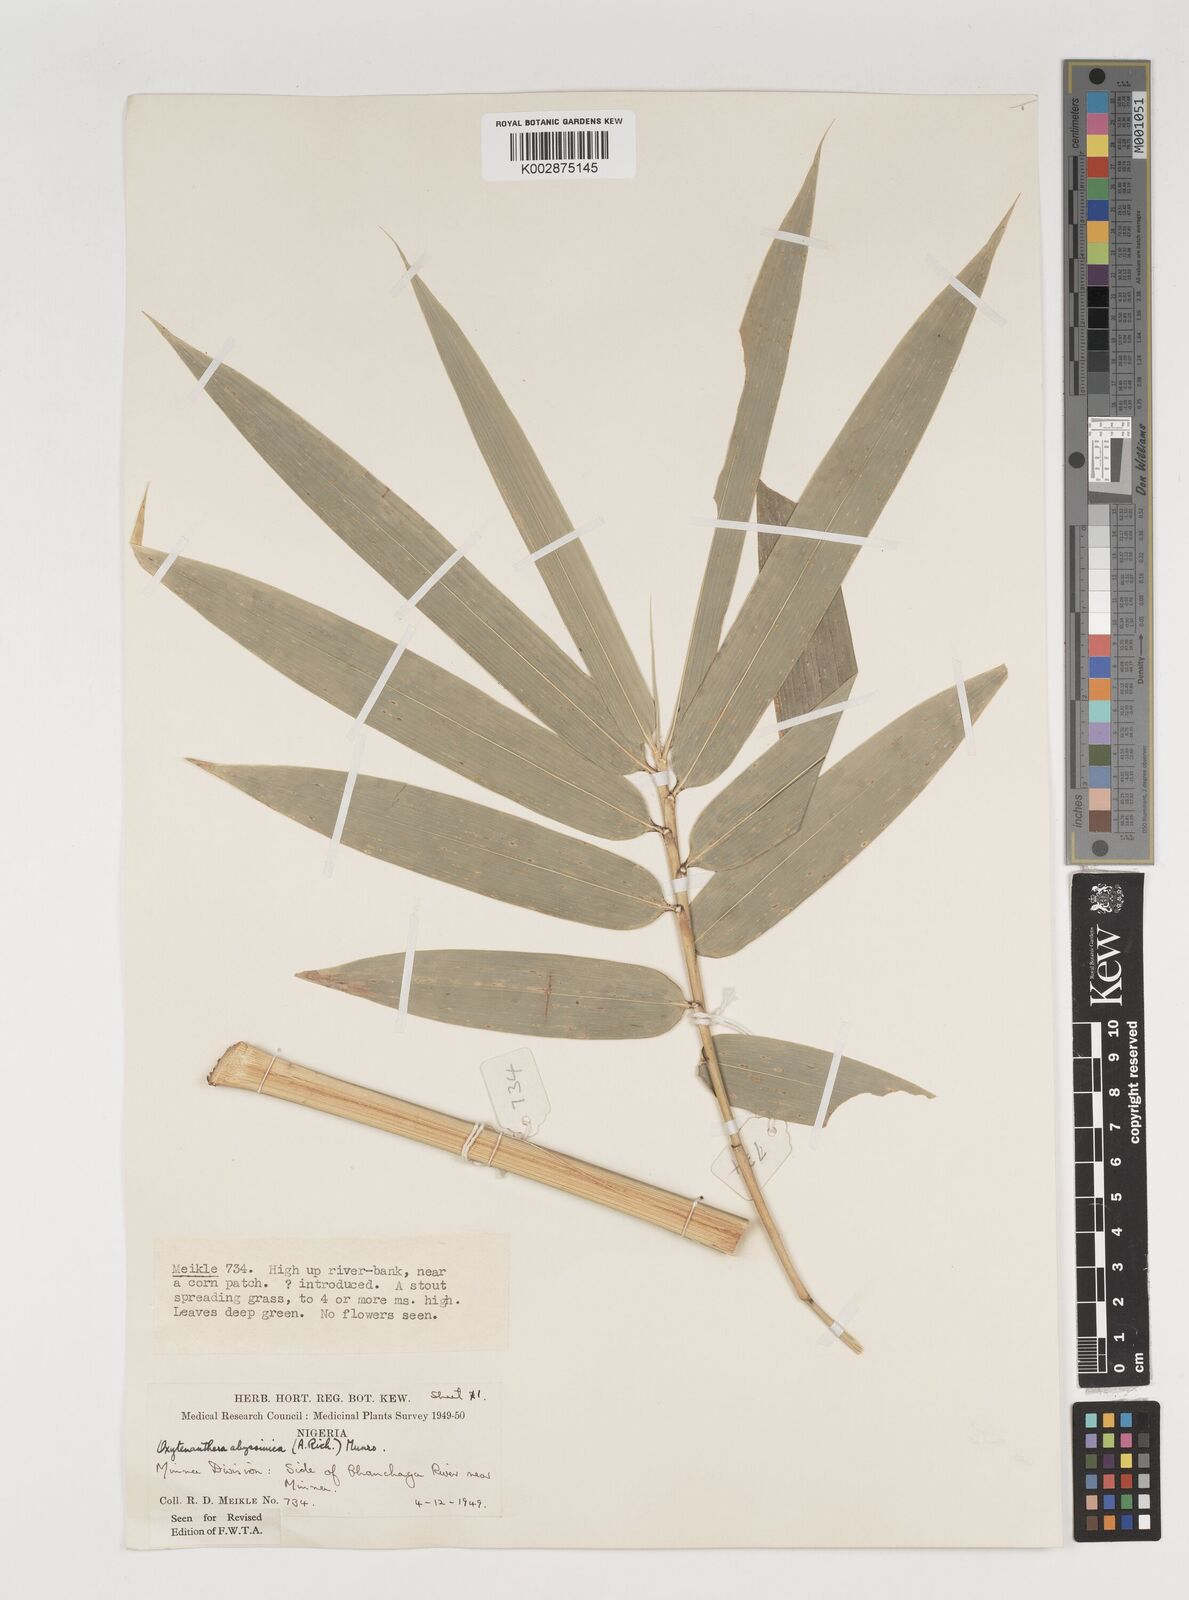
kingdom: Plantae
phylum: Tracheophyta
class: Liliopsida
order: Poales
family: Poaceae
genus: Oxytenanthera
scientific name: Oxytenanthera abyssinica
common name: Wine bamboo
